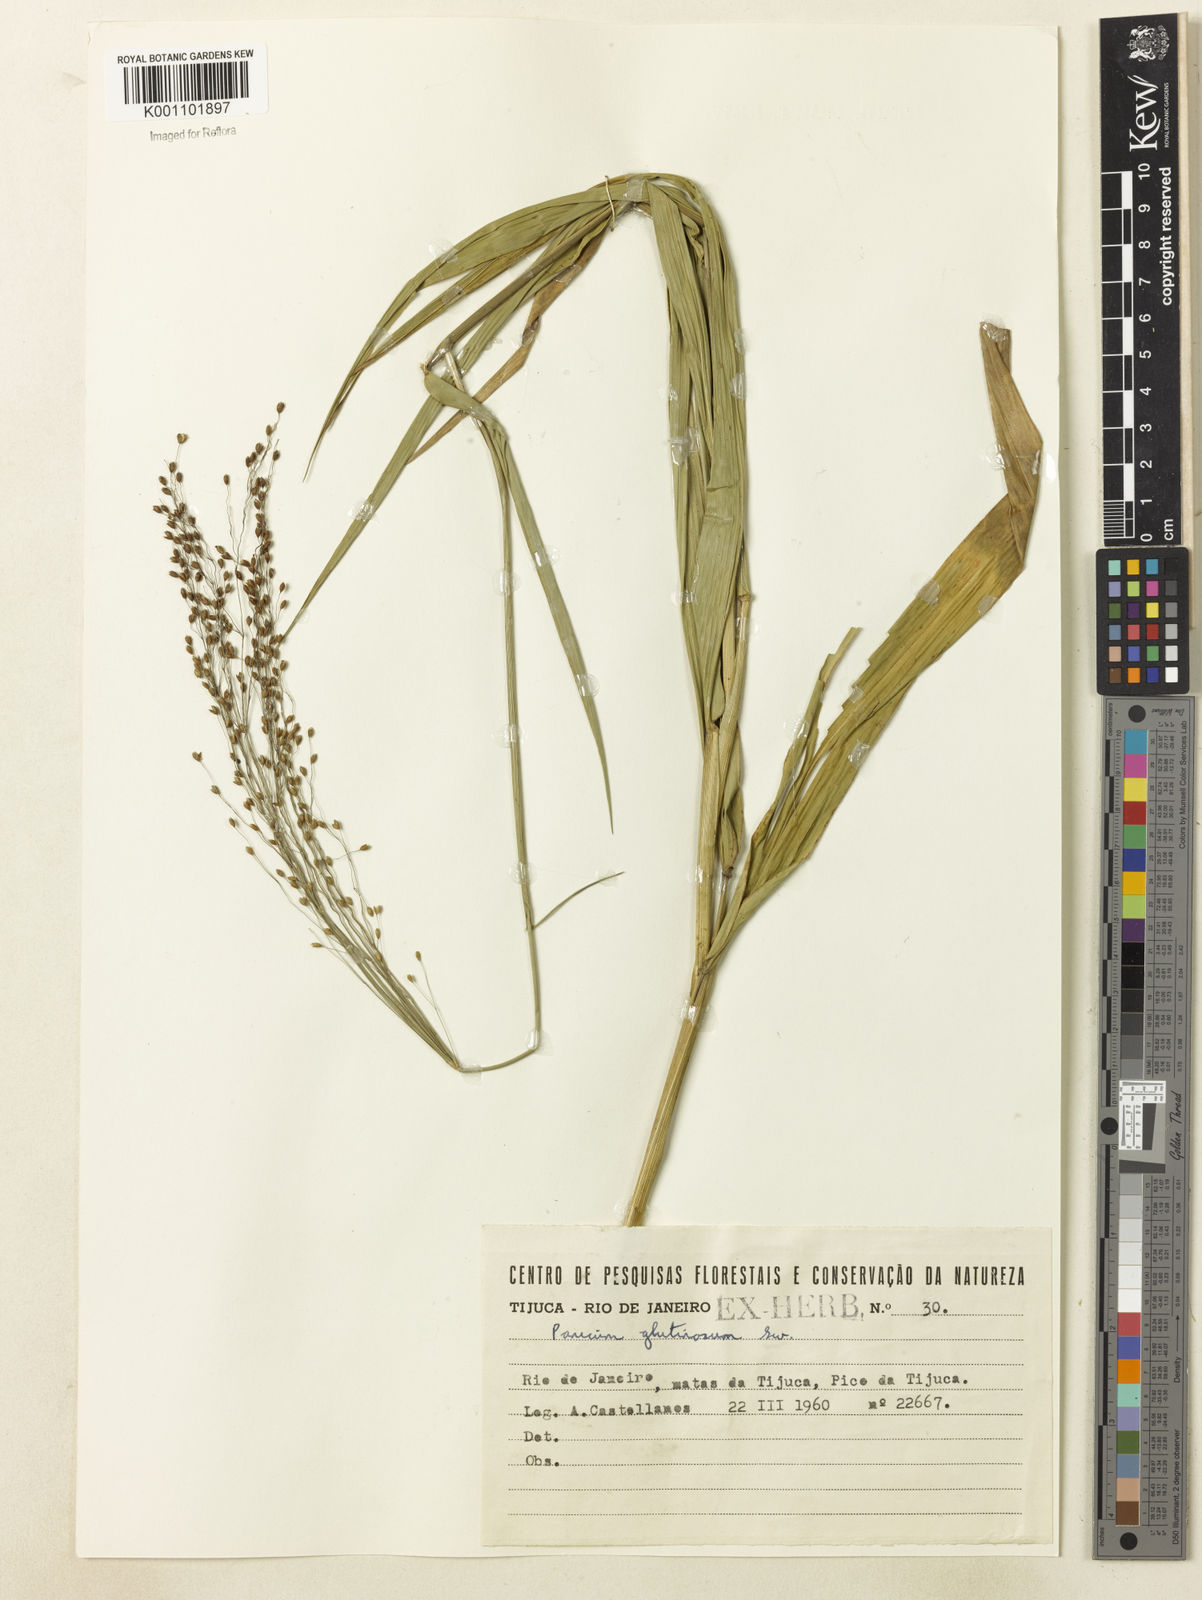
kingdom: Plantae
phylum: Tracheophyta
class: Liliopsida
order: Poales
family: Poaceae
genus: Homolepis
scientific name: Homolepis glutinosa
